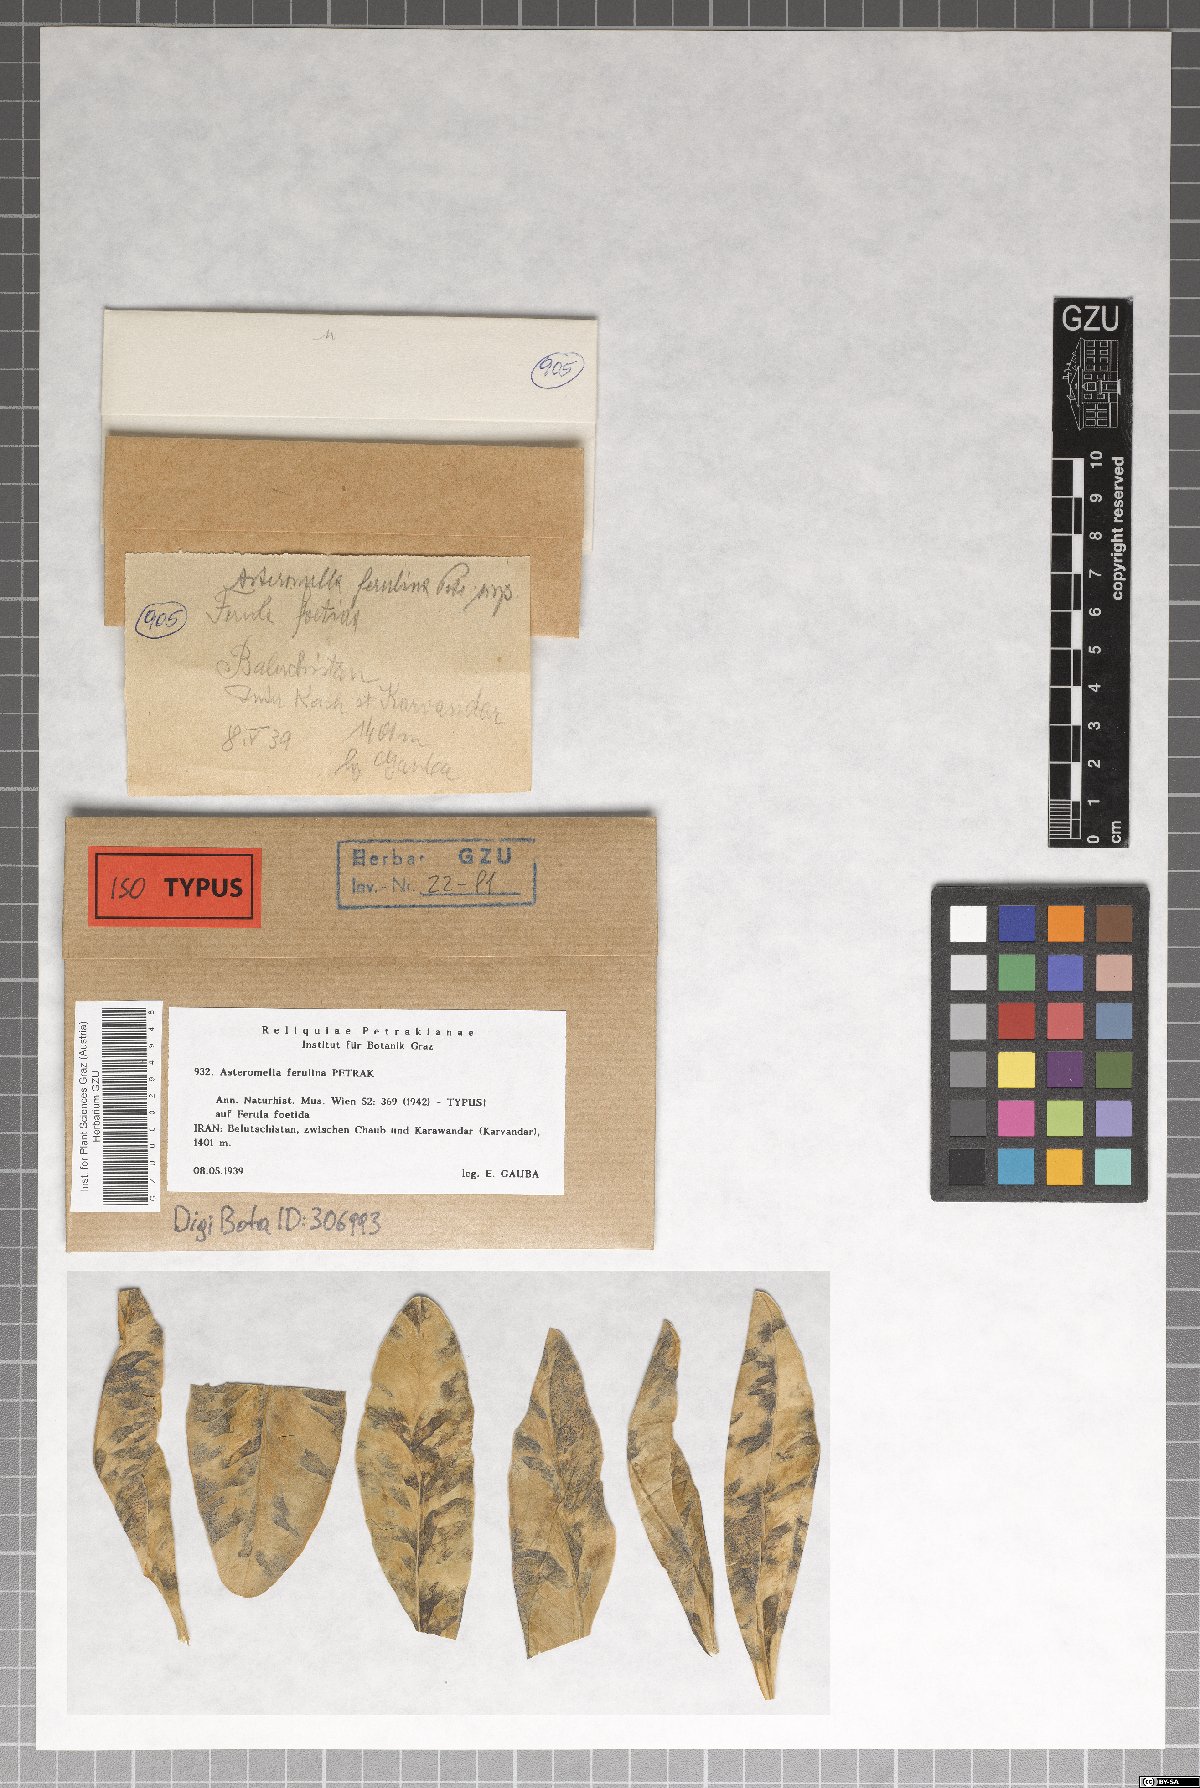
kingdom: Fungi
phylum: Ascomycota
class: Dothideomycetes
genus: Asteromella
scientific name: Asteromella ferulina
